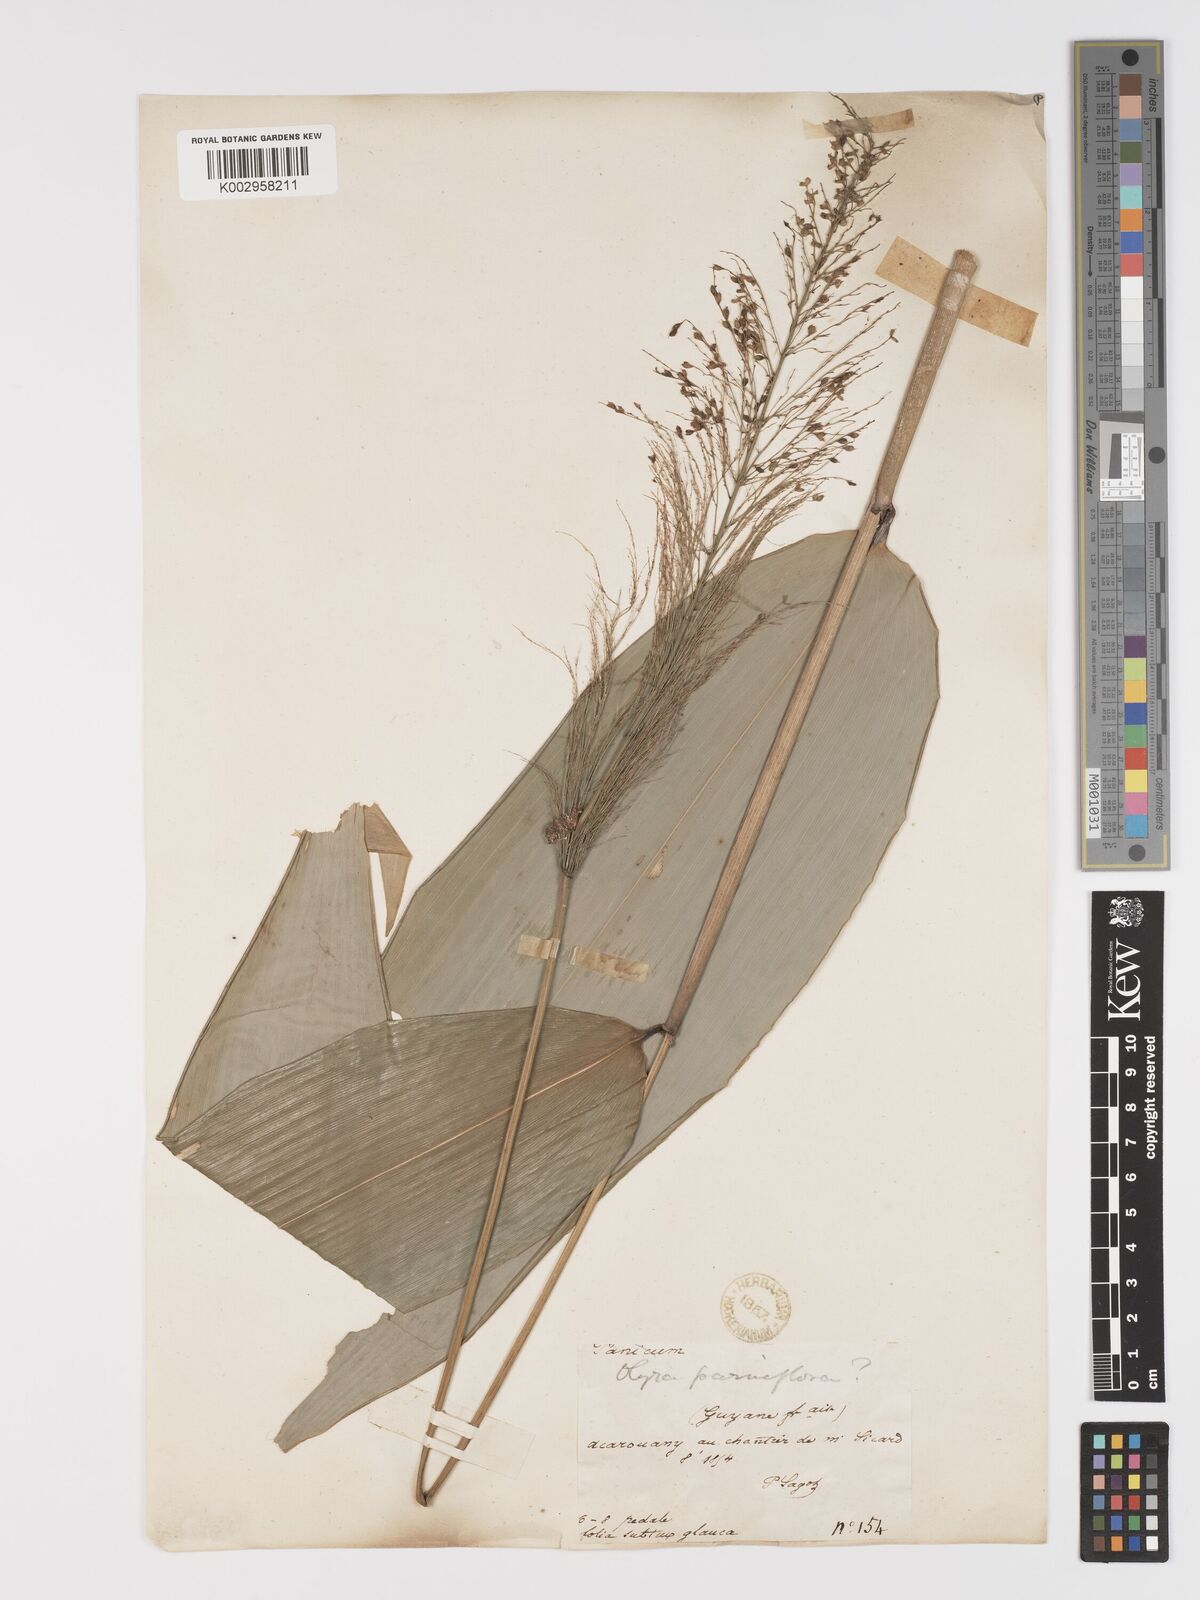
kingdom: Plantae
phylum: Tracheophyta
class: Liliopsida
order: Poales
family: Poaceae
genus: Taquara
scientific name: Taquara micrantha
